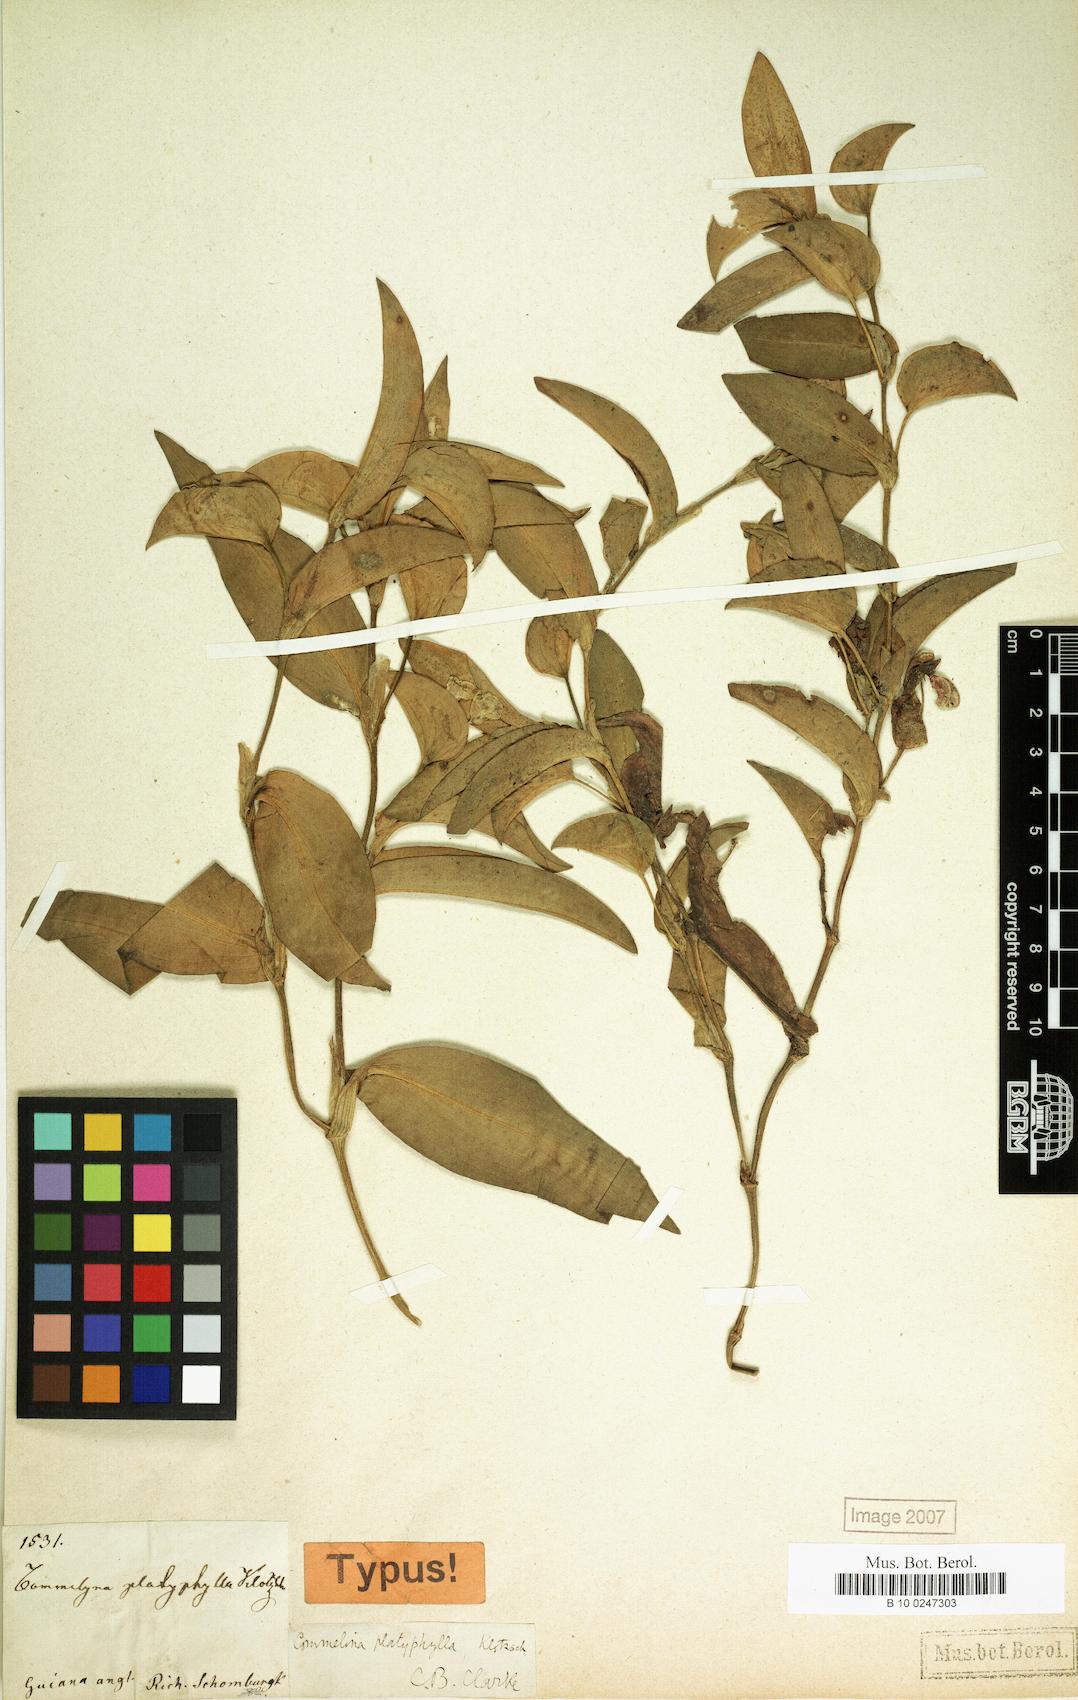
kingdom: Plantae
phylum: Tracheophyta
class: Liliopsida
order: Commelinales
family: Commelinaceae
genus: Commelina
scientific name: Commelina platyphylla
